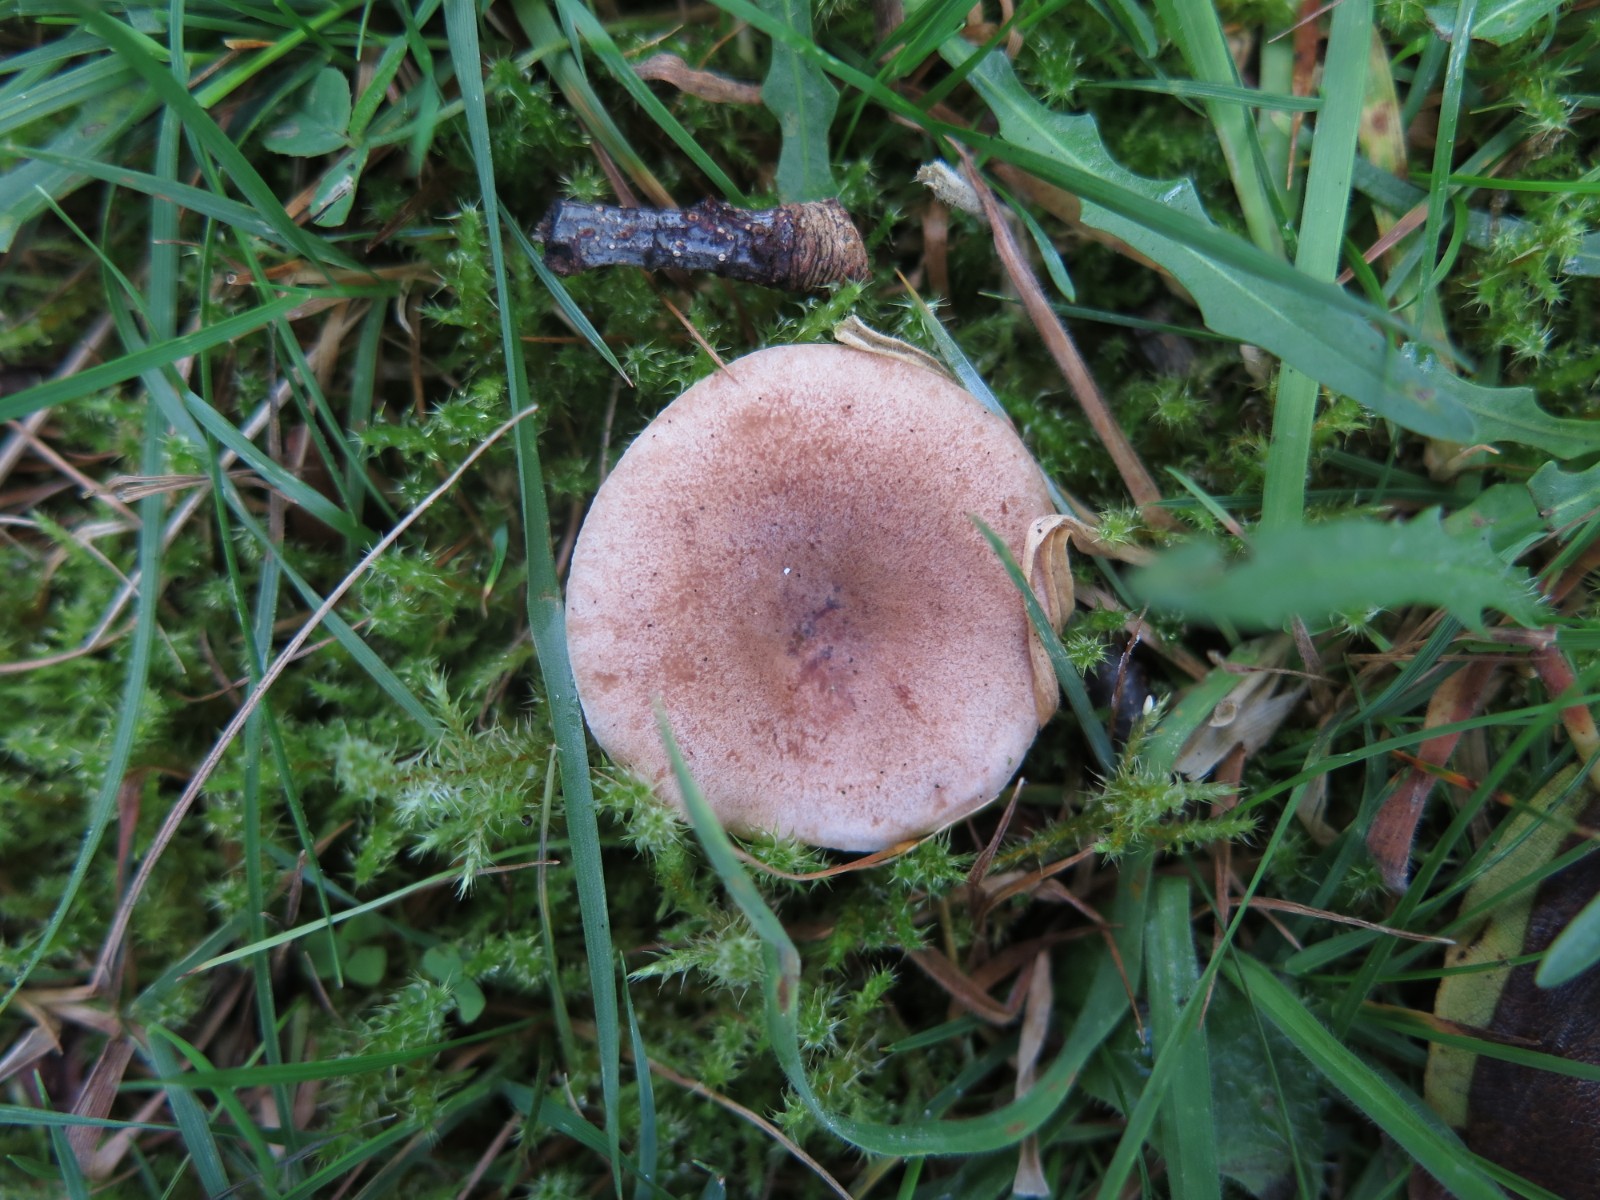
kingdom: Fungi
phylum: Basidiomycota
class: Agaricomycetes
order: Russulales
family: Russulaceae
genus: Lactarius
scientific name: Lactarius quietus
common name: ege-mælkehat
